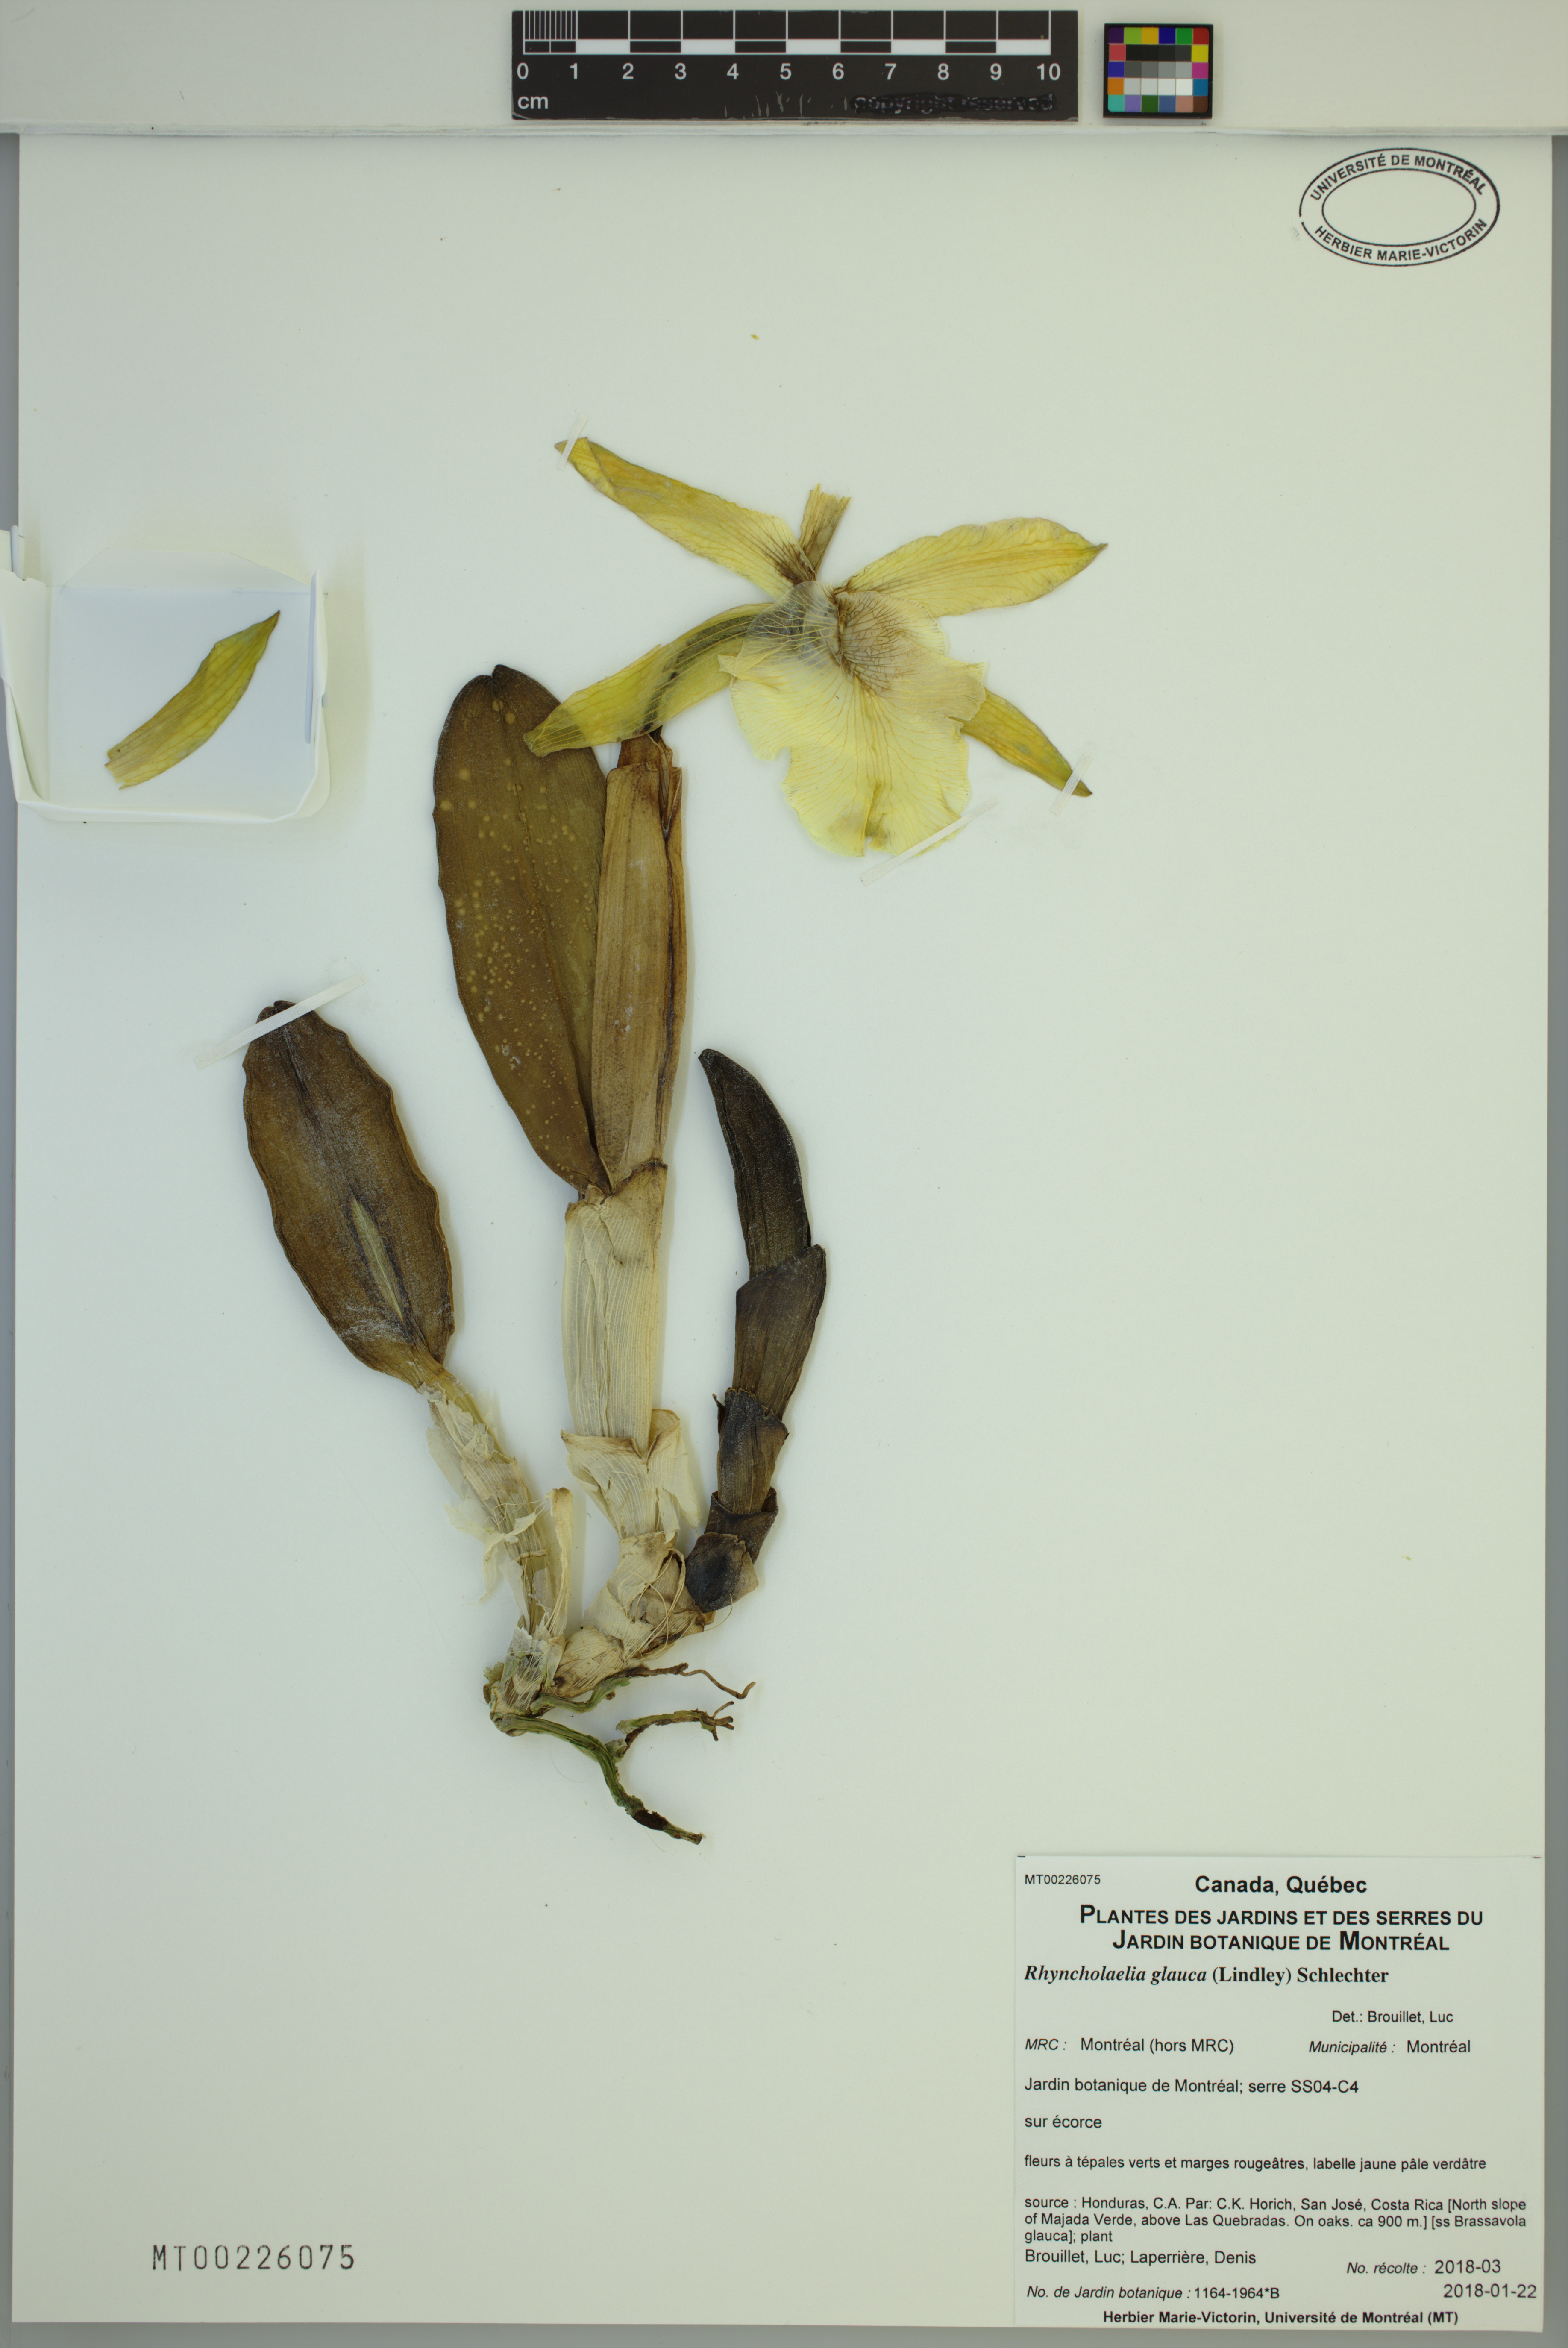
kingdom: Plantae
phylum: Tracheophyta
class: Liliopsida
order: Asparagales
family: Orchidaceae
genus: Rhyncholaelia
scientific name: Rhyncholaelia glauca
